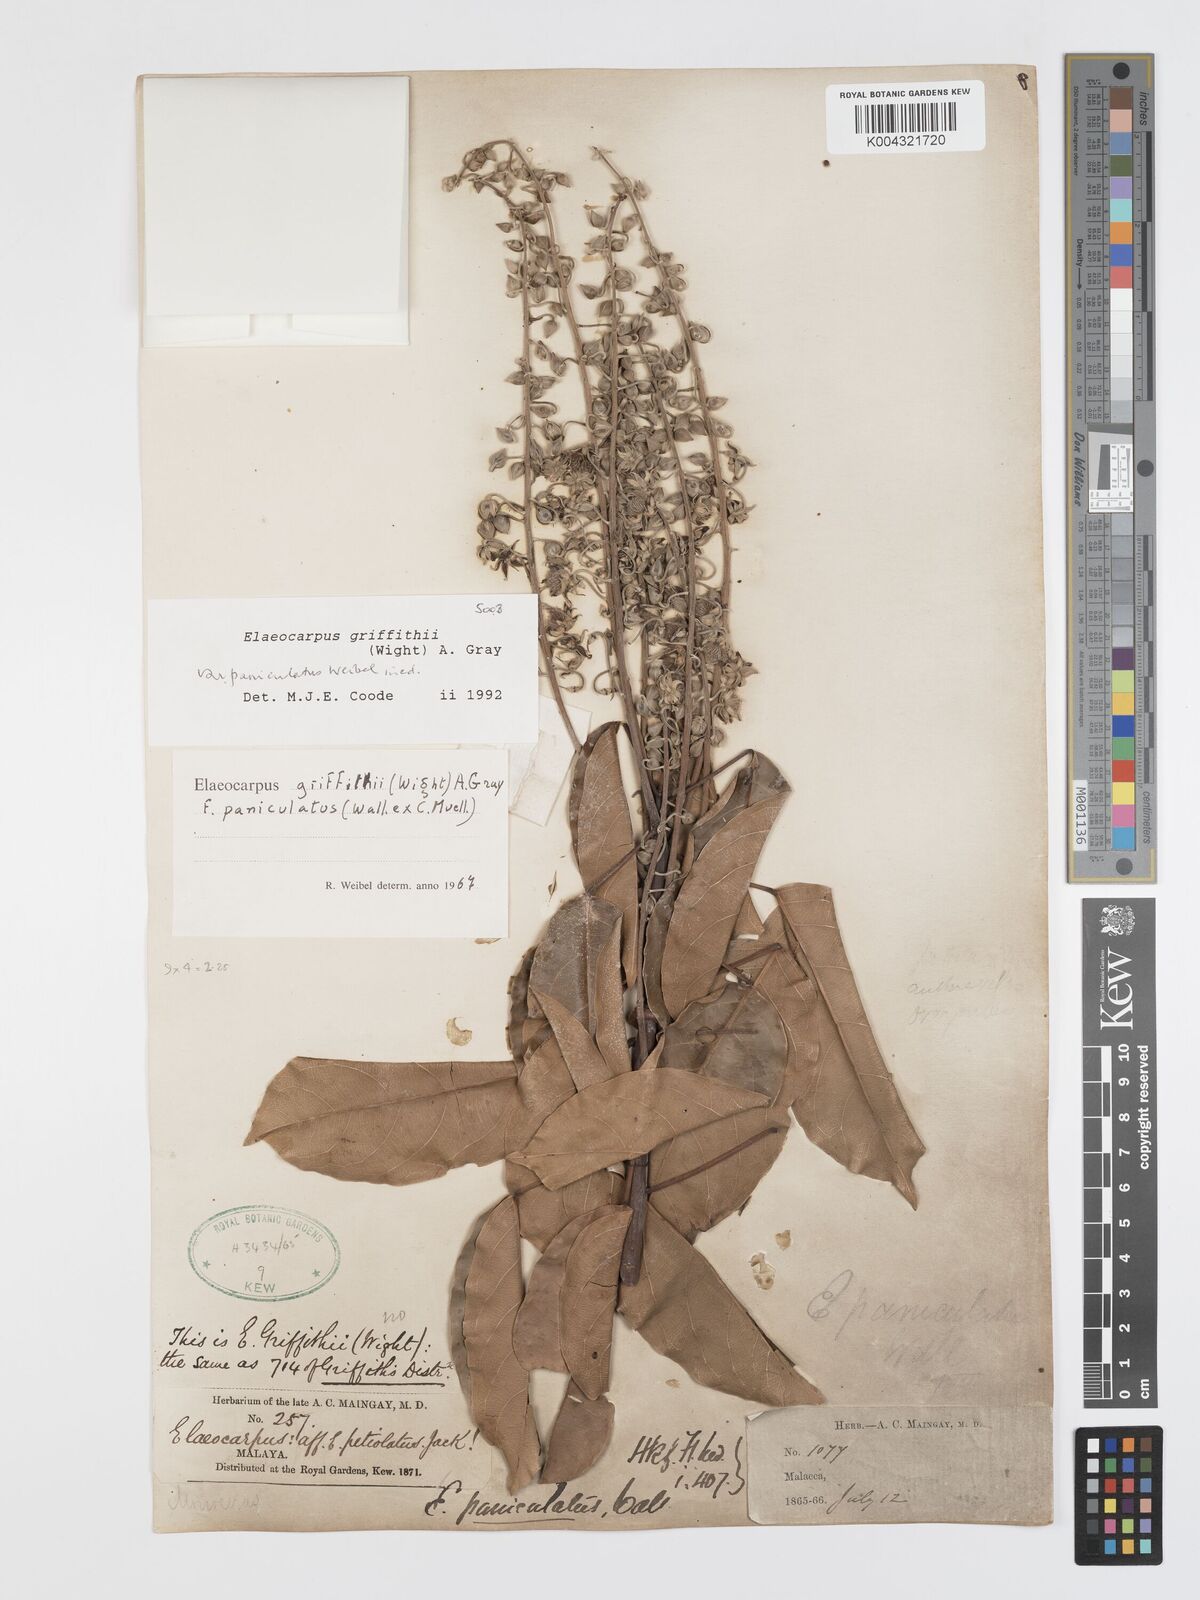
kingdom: Plantae
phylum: Tracheophyta
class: Magnoliopsida
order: Oxalidales
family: Elaeocarpaceae
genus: Elaeocarpus
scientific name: Elaeocarpus griffithii
